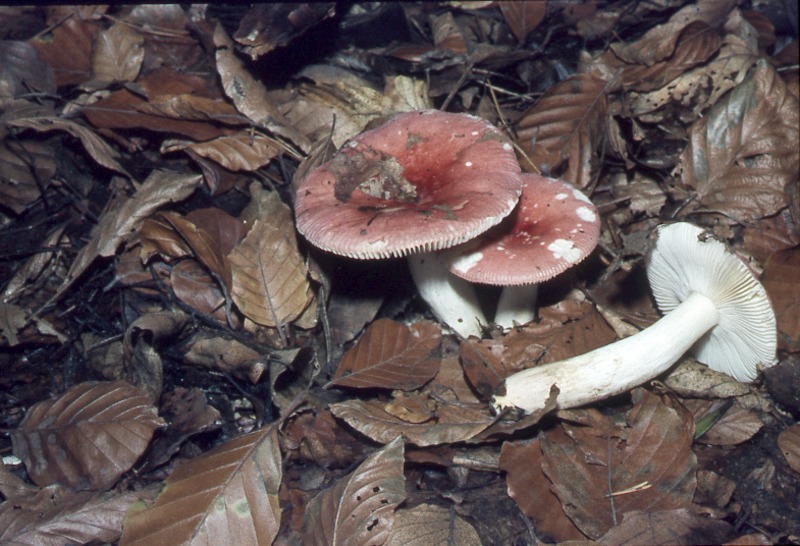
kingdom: Fungi
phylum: Basidiomycota
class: Agaricomycetes
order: Russulales
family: Russulaceae
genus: Russula
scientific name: Russula emetica
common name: Sickener
